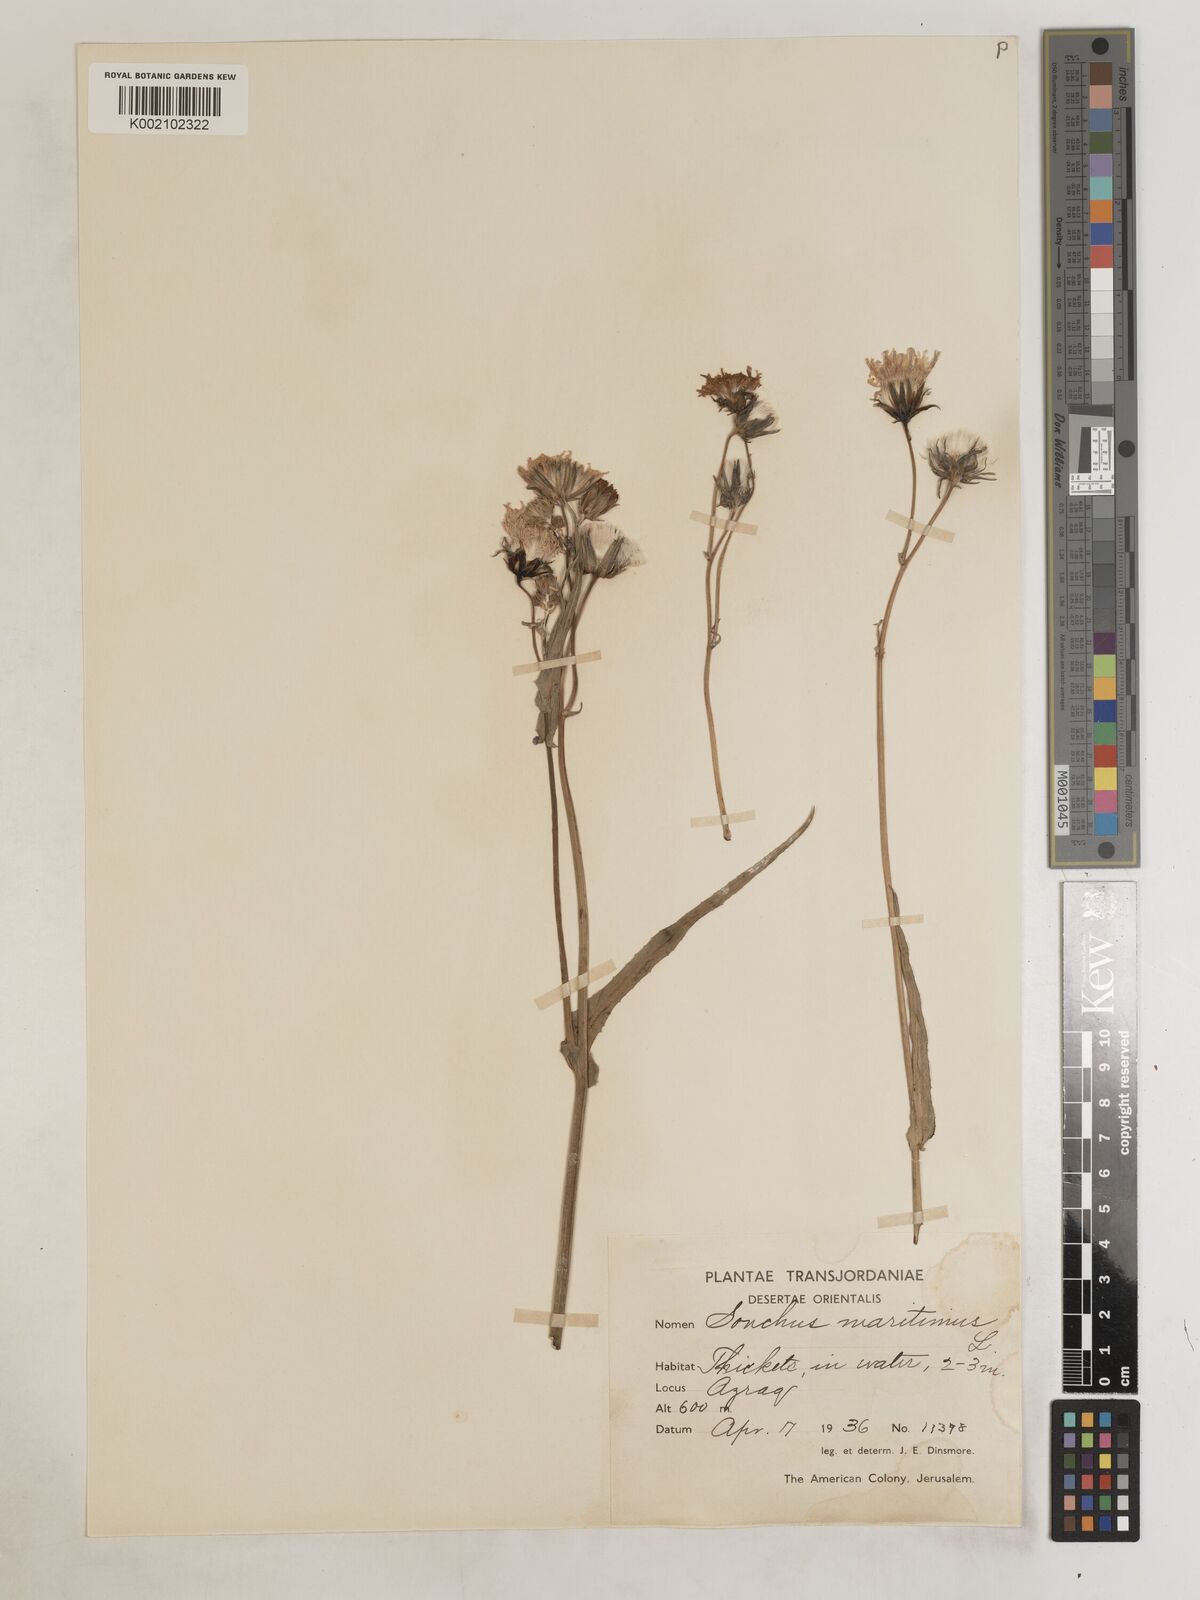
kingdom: Plantae
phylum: Tracheophyta
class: Magnoliopsida
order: Asterales
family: Asteraceae
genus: Sonchus
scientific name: Sonchus maritimus
